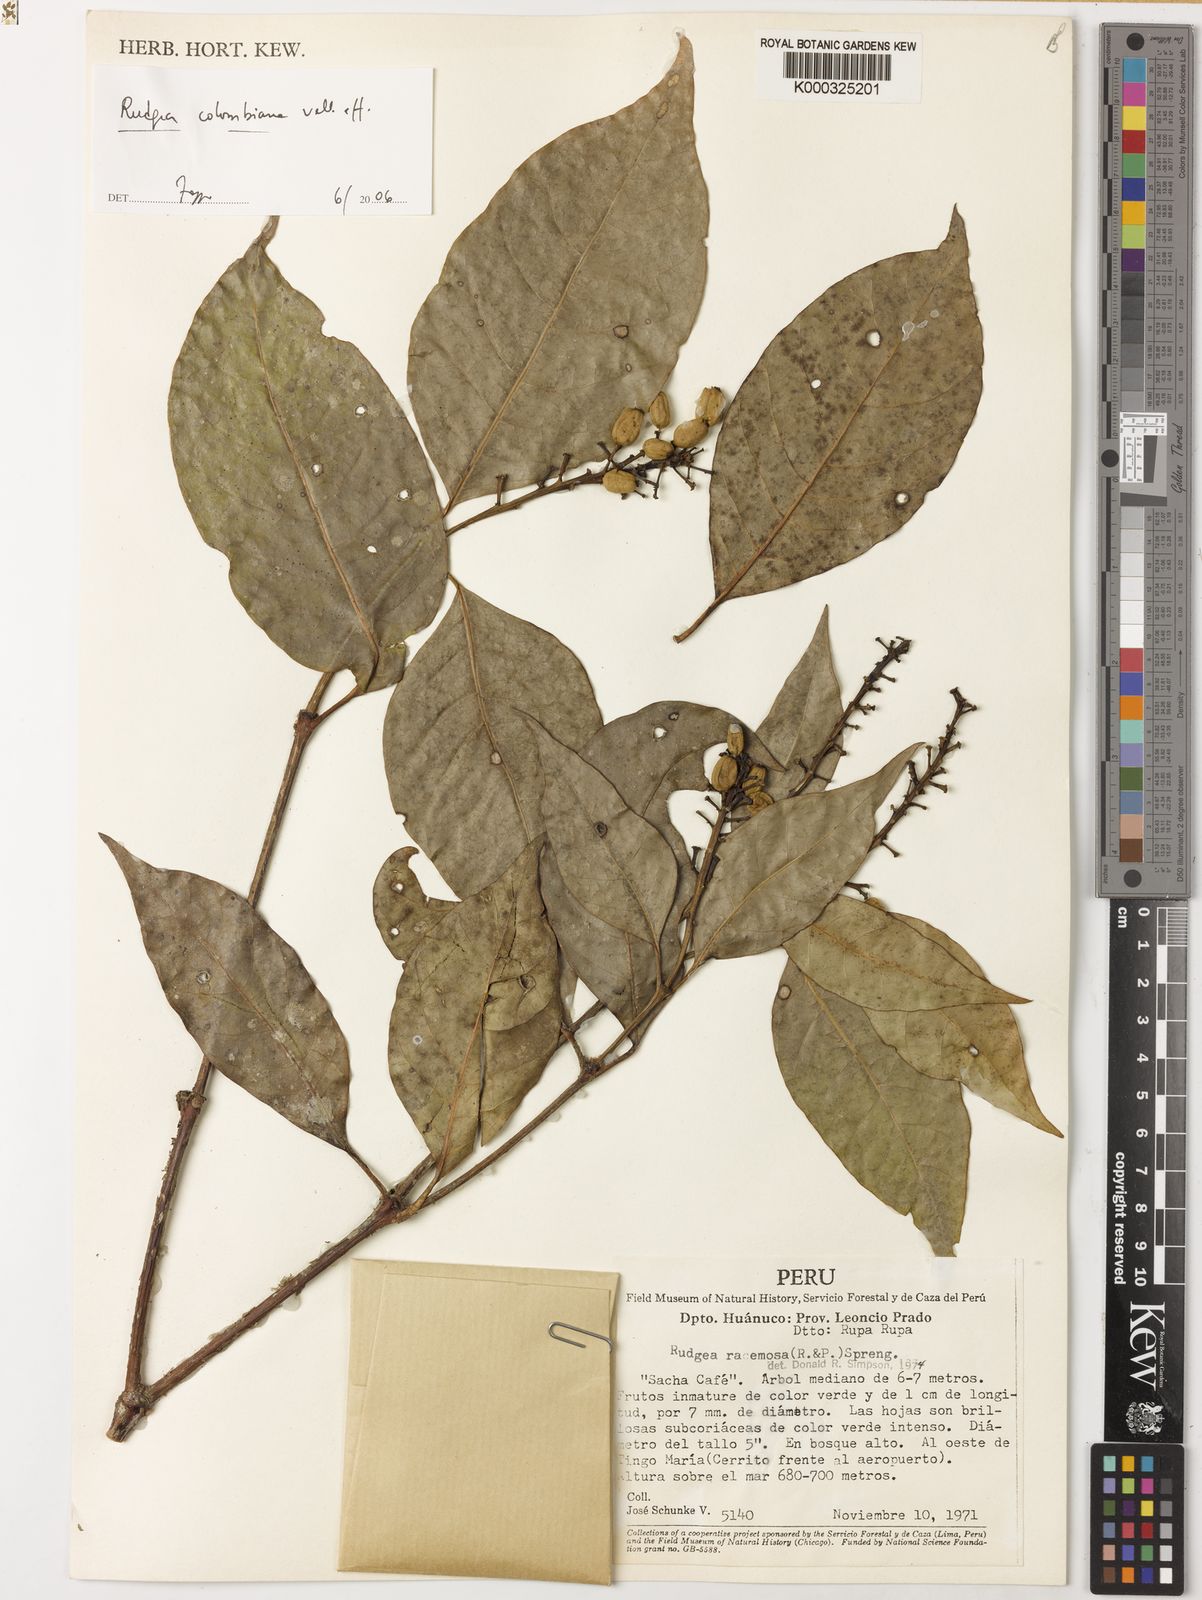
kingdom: Plantae
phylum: Tracheophyta
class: Magnoliopsida
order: Gentianales
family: Rubiaceae
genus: Rudgea
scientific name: Rudgea
